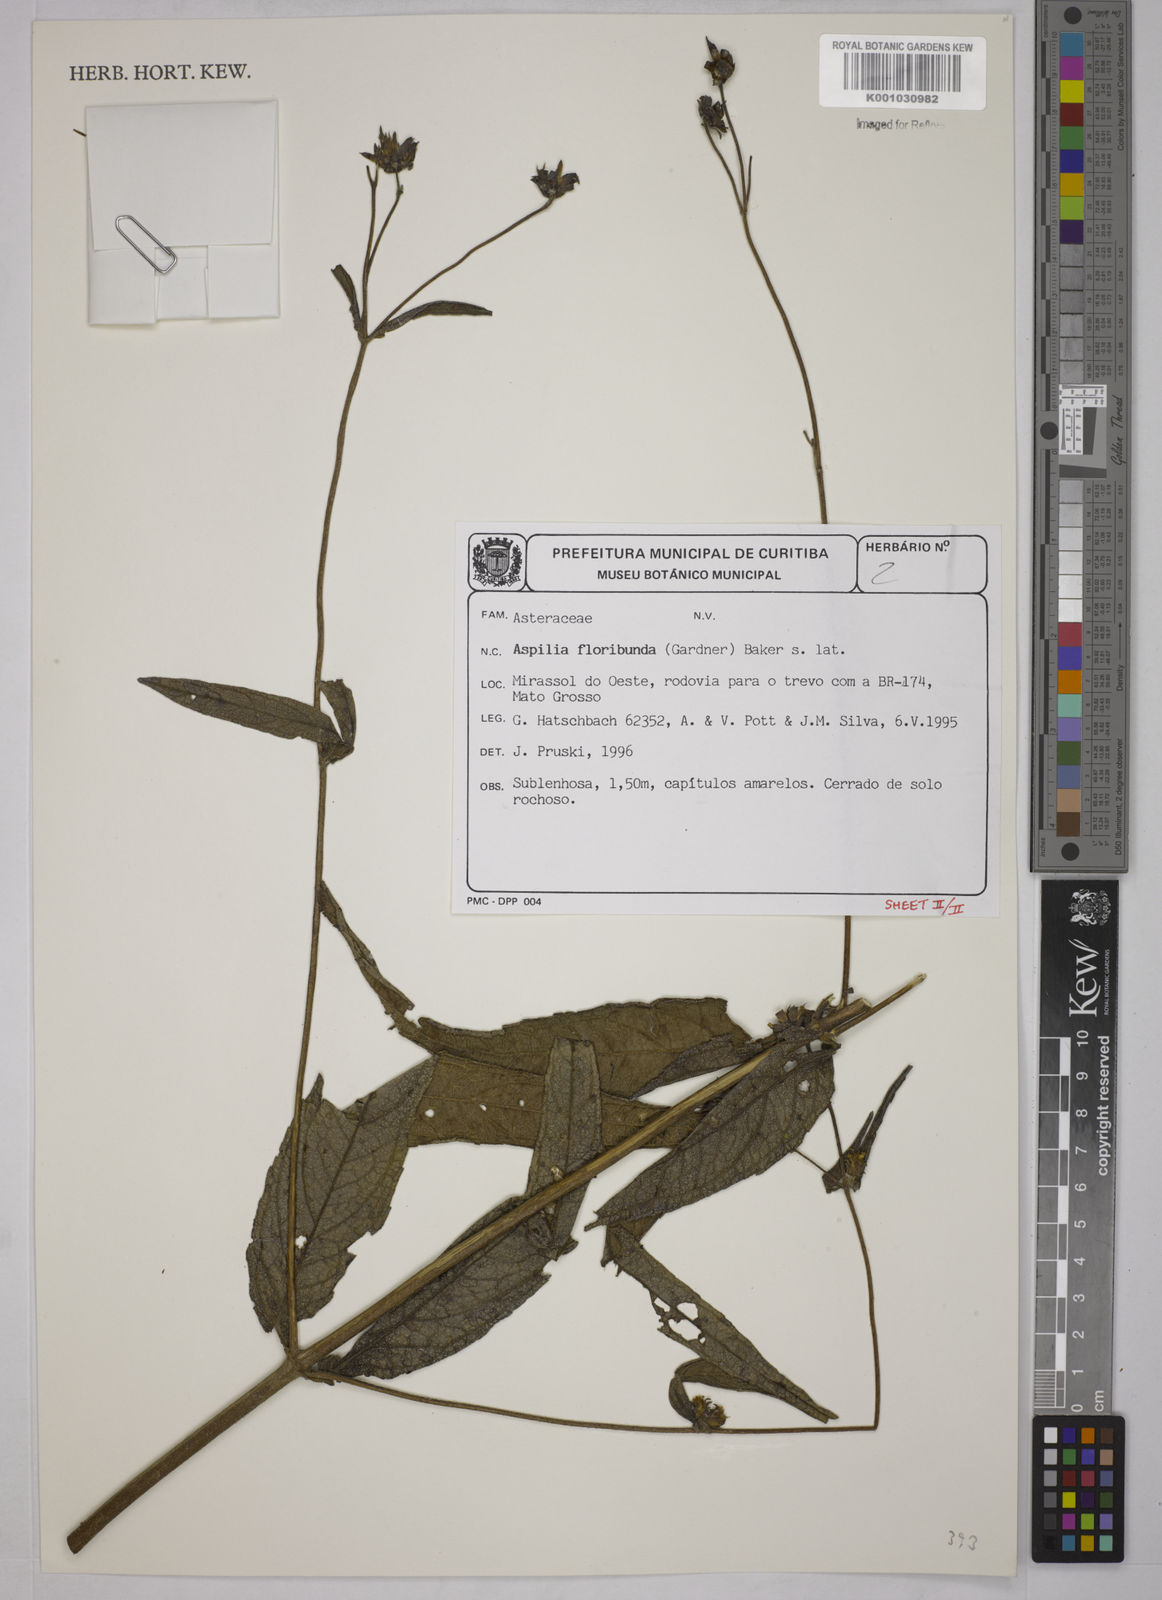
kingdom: Plantae
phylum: Tracheophyta
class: Magnoliopsida
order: Asterales
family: Asteraceae
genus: Wedelia
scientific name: Wedelia floribunda
